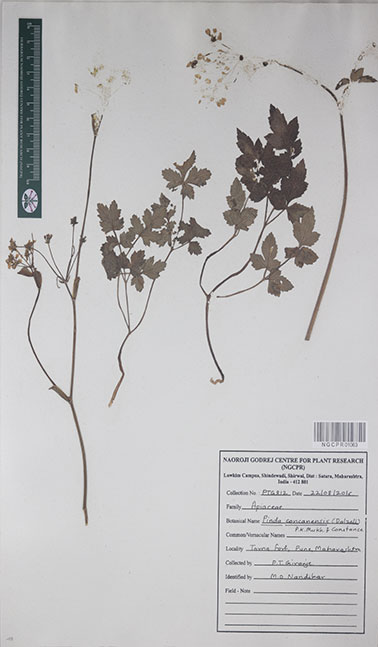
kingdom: Plantae
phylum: Tracheophyta
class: Magnoliopsida
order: Apiales
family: Apiaceae
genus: Pinda
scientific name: Pinda concanensis
